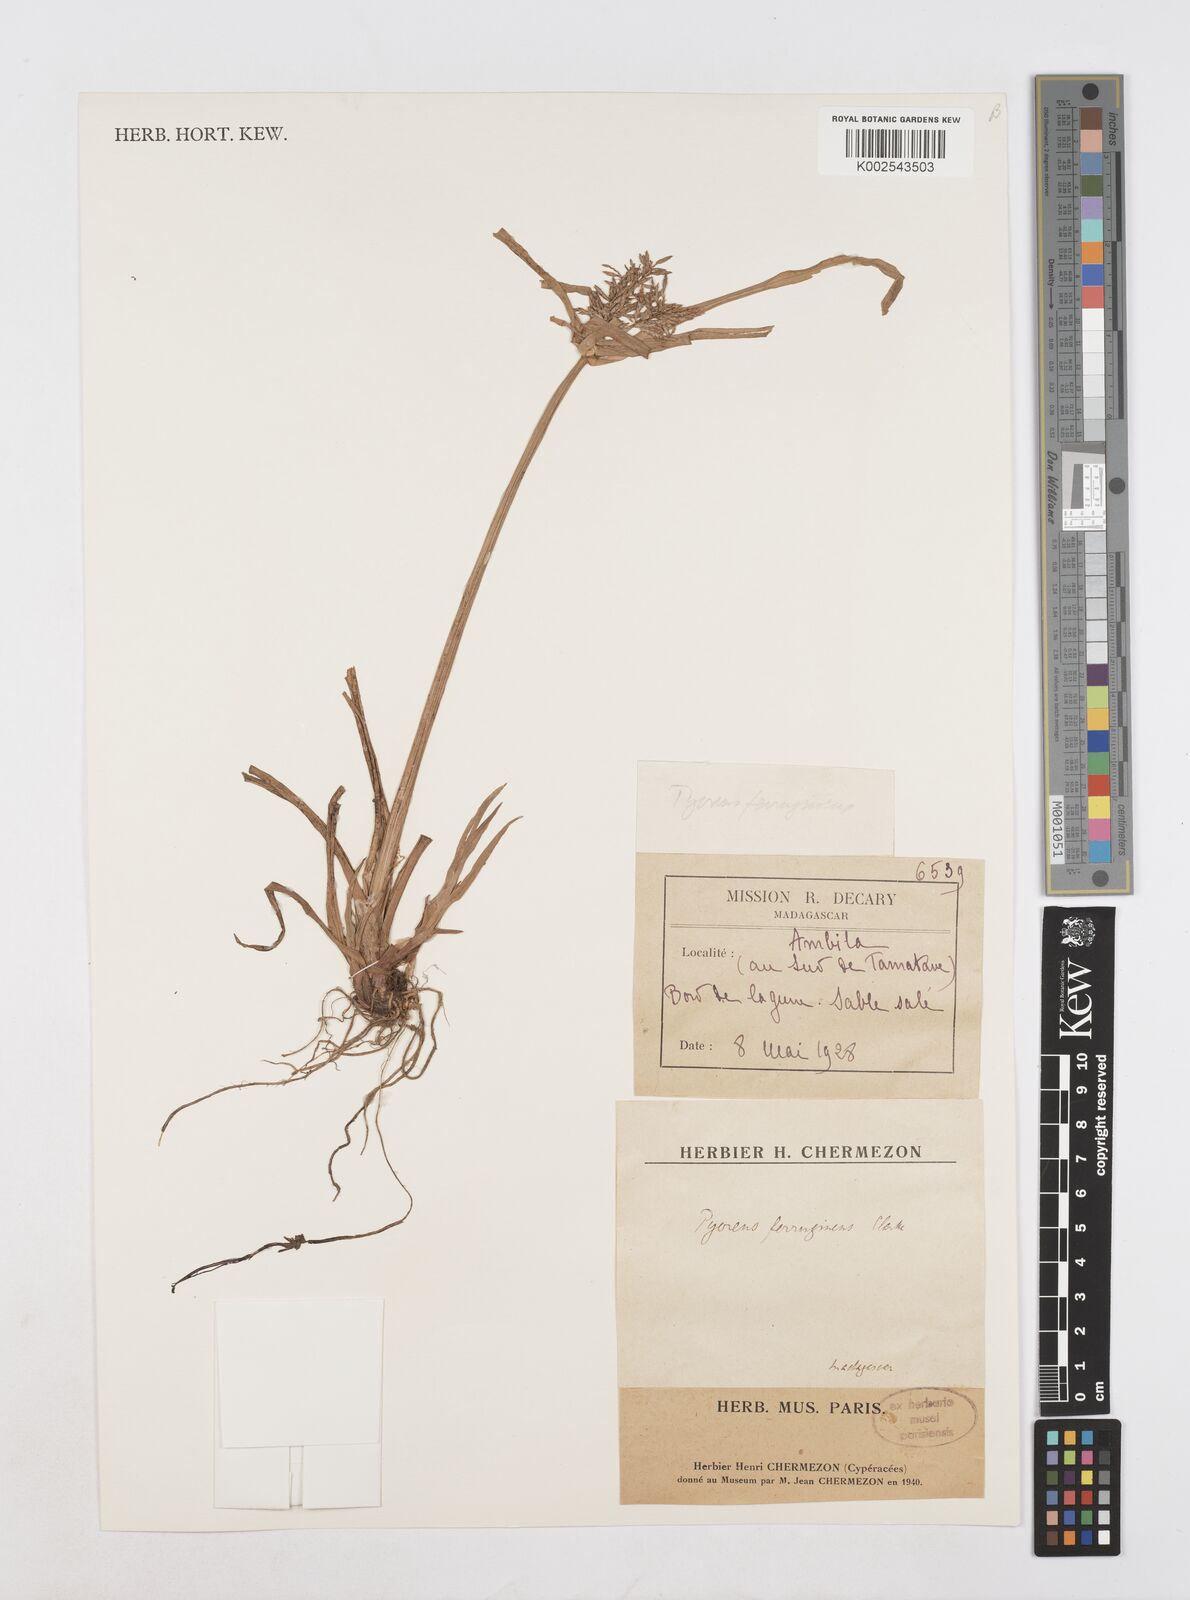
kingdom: Plantae
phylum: Tracheophyta
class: Liliopsida
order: Poales
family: Cyperaceae
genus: Cyperus
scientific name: Cyperus intactus
